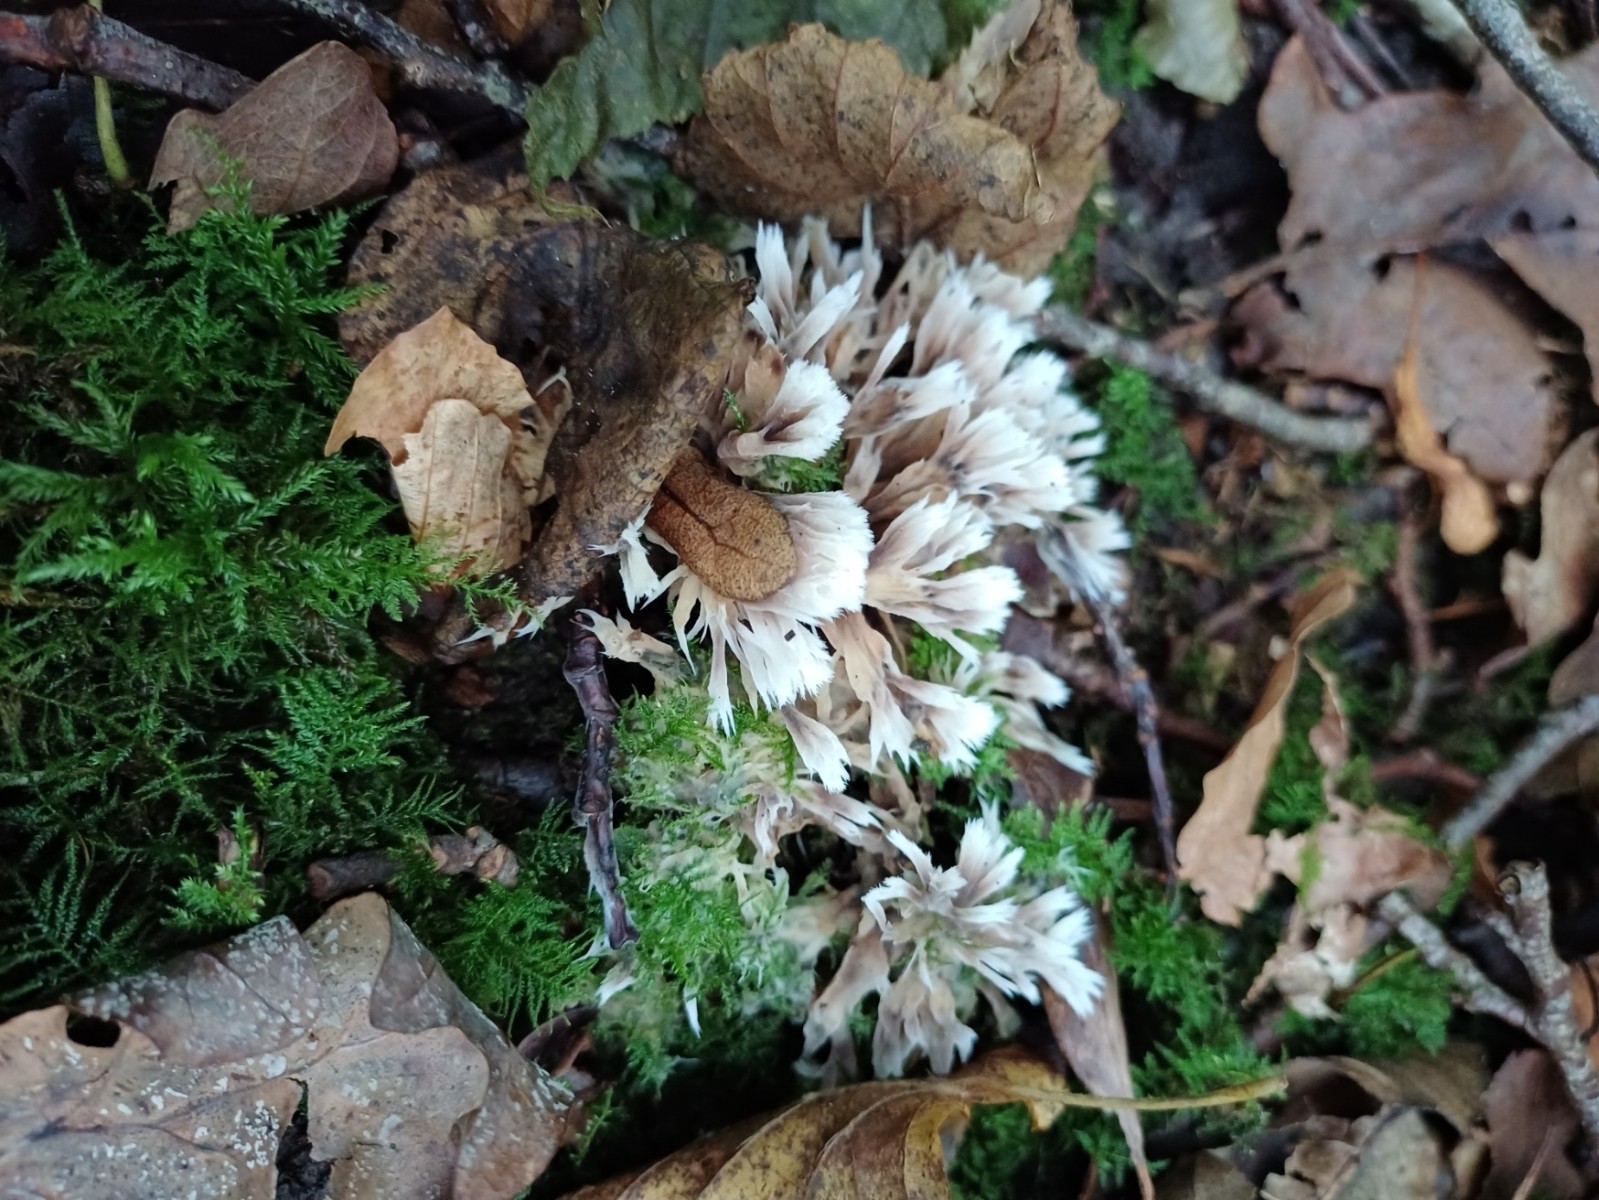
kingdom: Fungi
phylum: Basidiomycota
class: Agaricomycetes
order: Thelephorales
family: Thelephoraceae
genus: Thelephora
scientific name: Thelephora penicillata
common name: fladtrådt frynsesvamp
